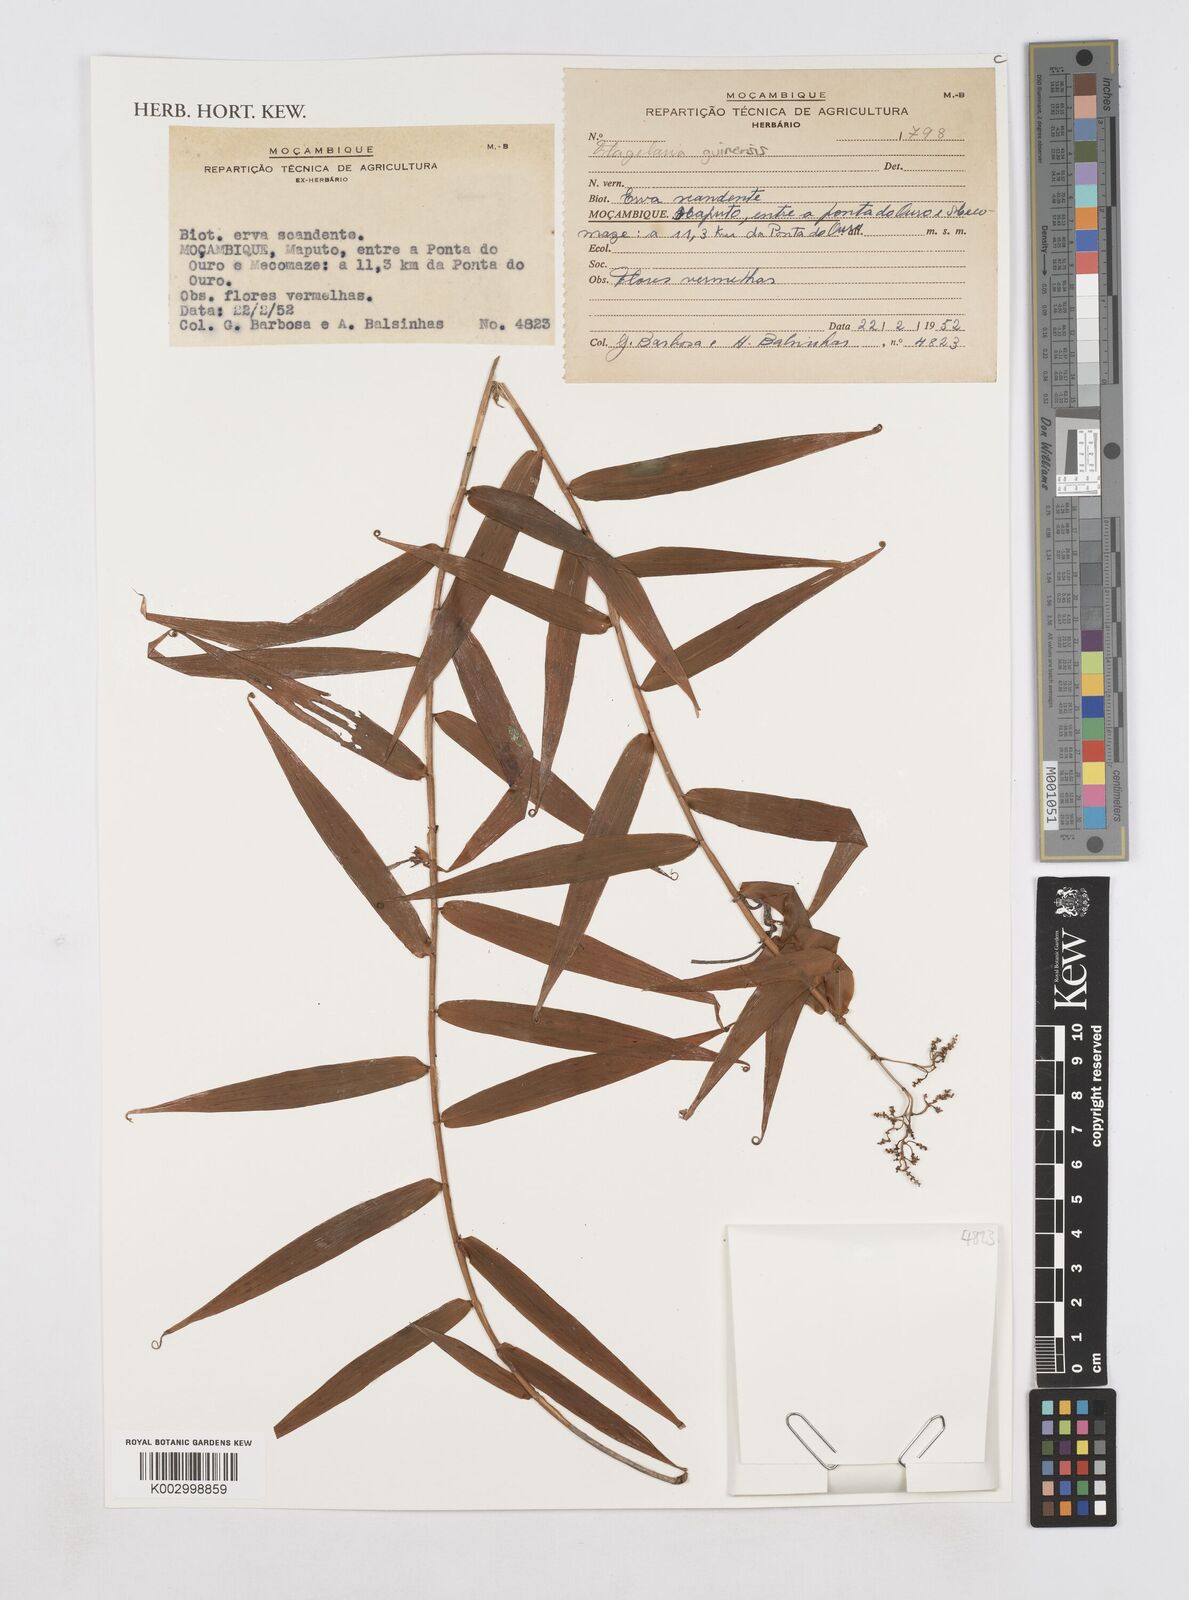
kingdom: Plantae
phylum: Tracheophyta
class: Liliopsida
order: Poales
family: Flagellariaceae
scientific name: Flagellariaceae
